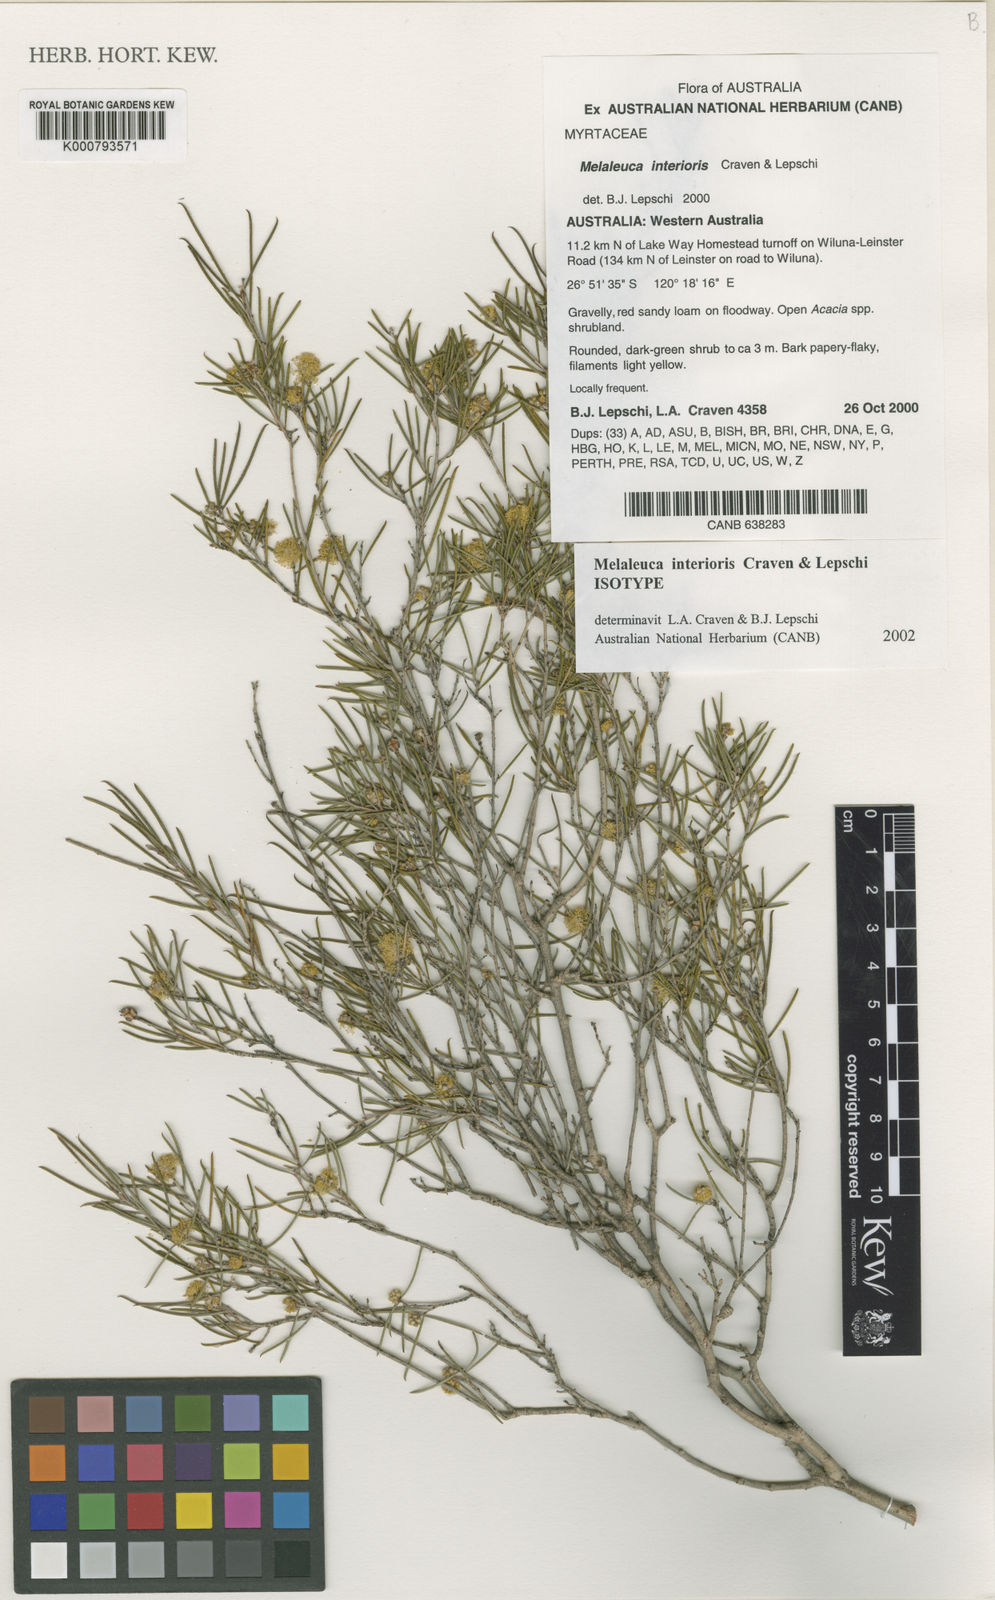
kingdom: Plantae
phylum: Tracheophyta
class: Magnoliopsida
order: Myrtales
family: Myrtaceae
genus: Melaleuca
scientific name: Melaleuca interioris
